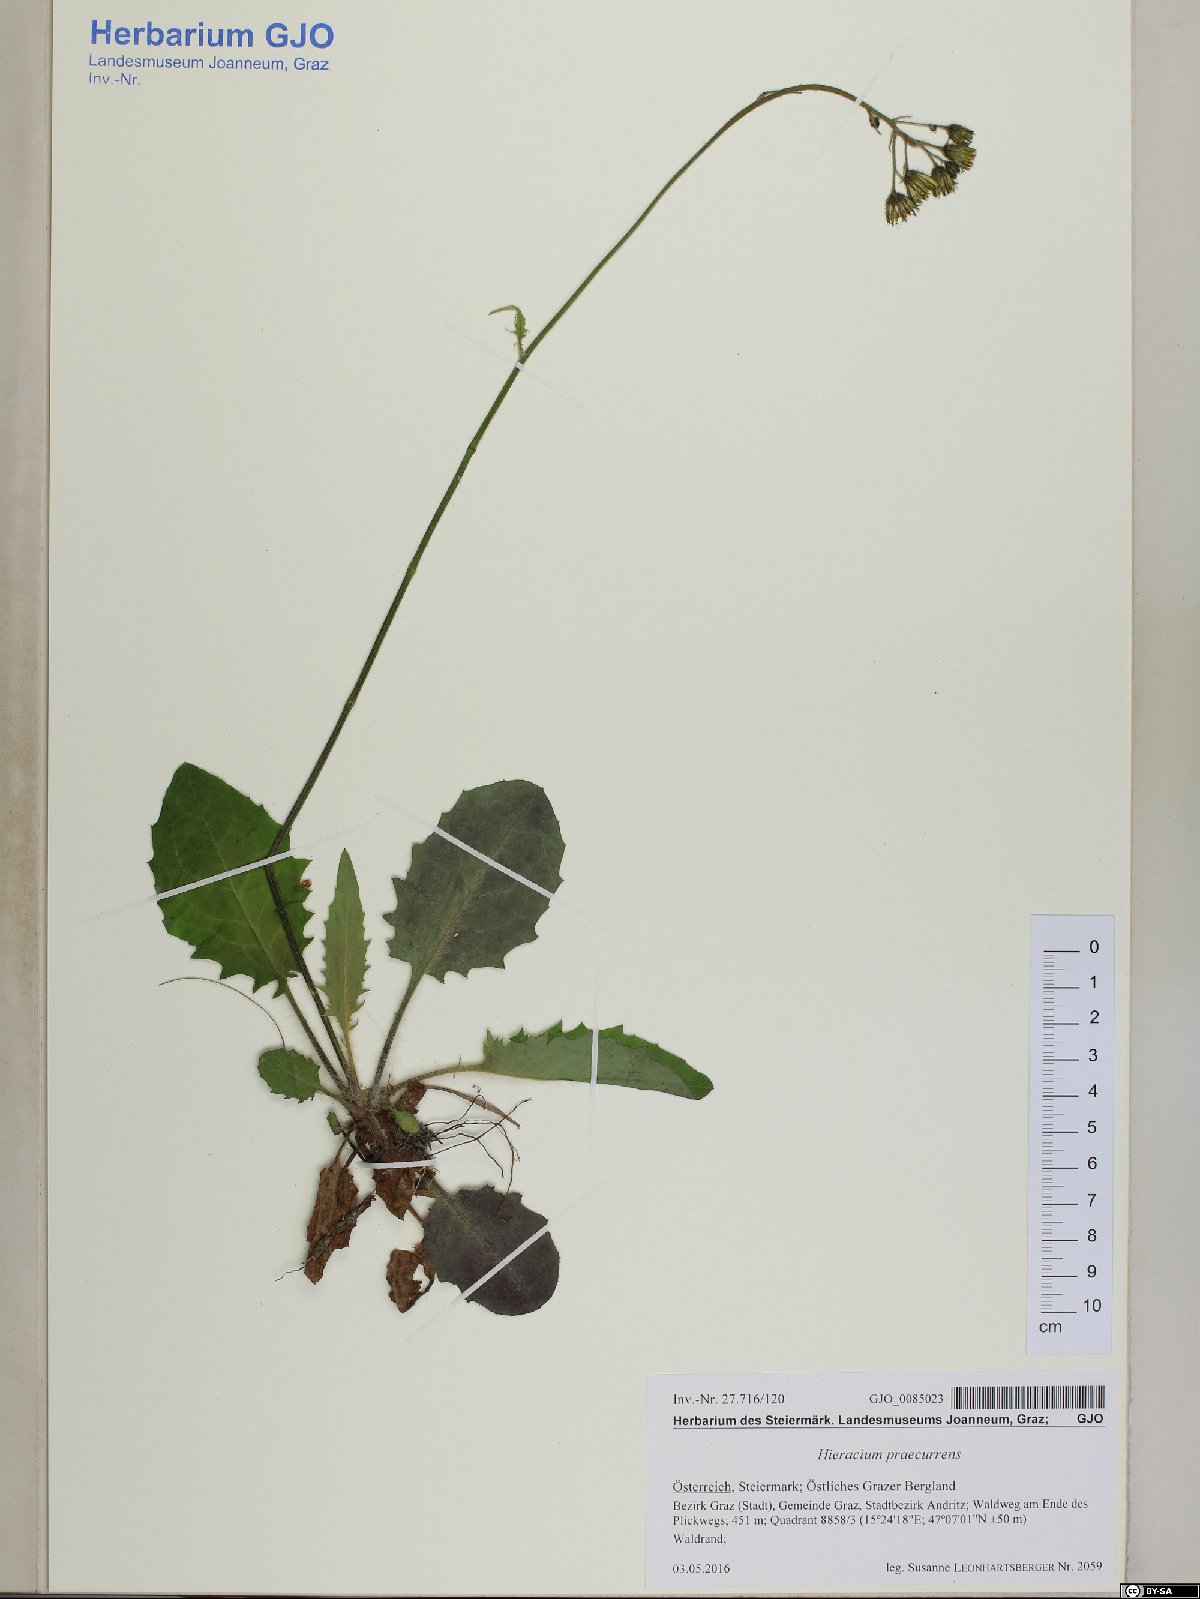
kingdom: Plantae
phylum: Tracheophyta
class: Magnoliopsida
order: Asterales
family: Asteraceae
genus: Hieracium
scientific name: Hieracium rotundatum
